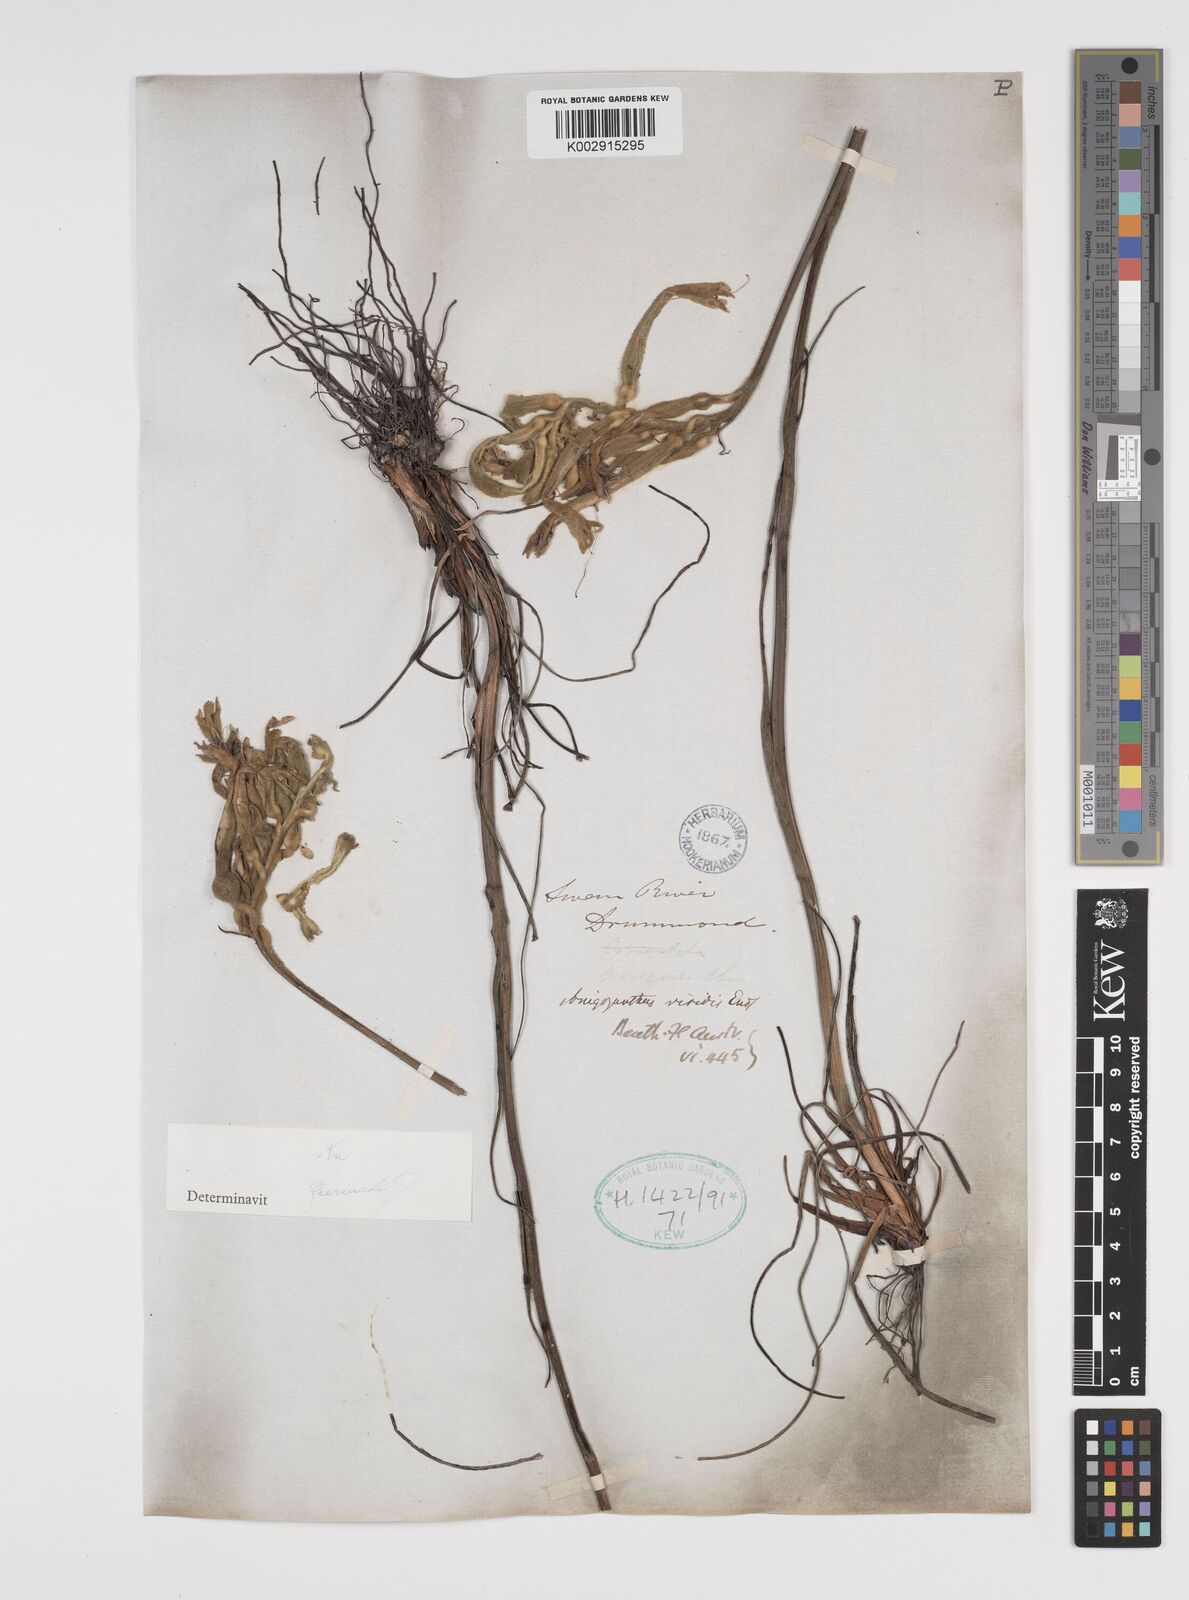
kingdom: Plantae
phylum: Tracheophyta
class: Liliopsida
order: Commelinales
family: Haemodoraceae
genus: Anigozanthos
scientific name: Anigozanthos viridis
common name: Green kangaroo-paw
